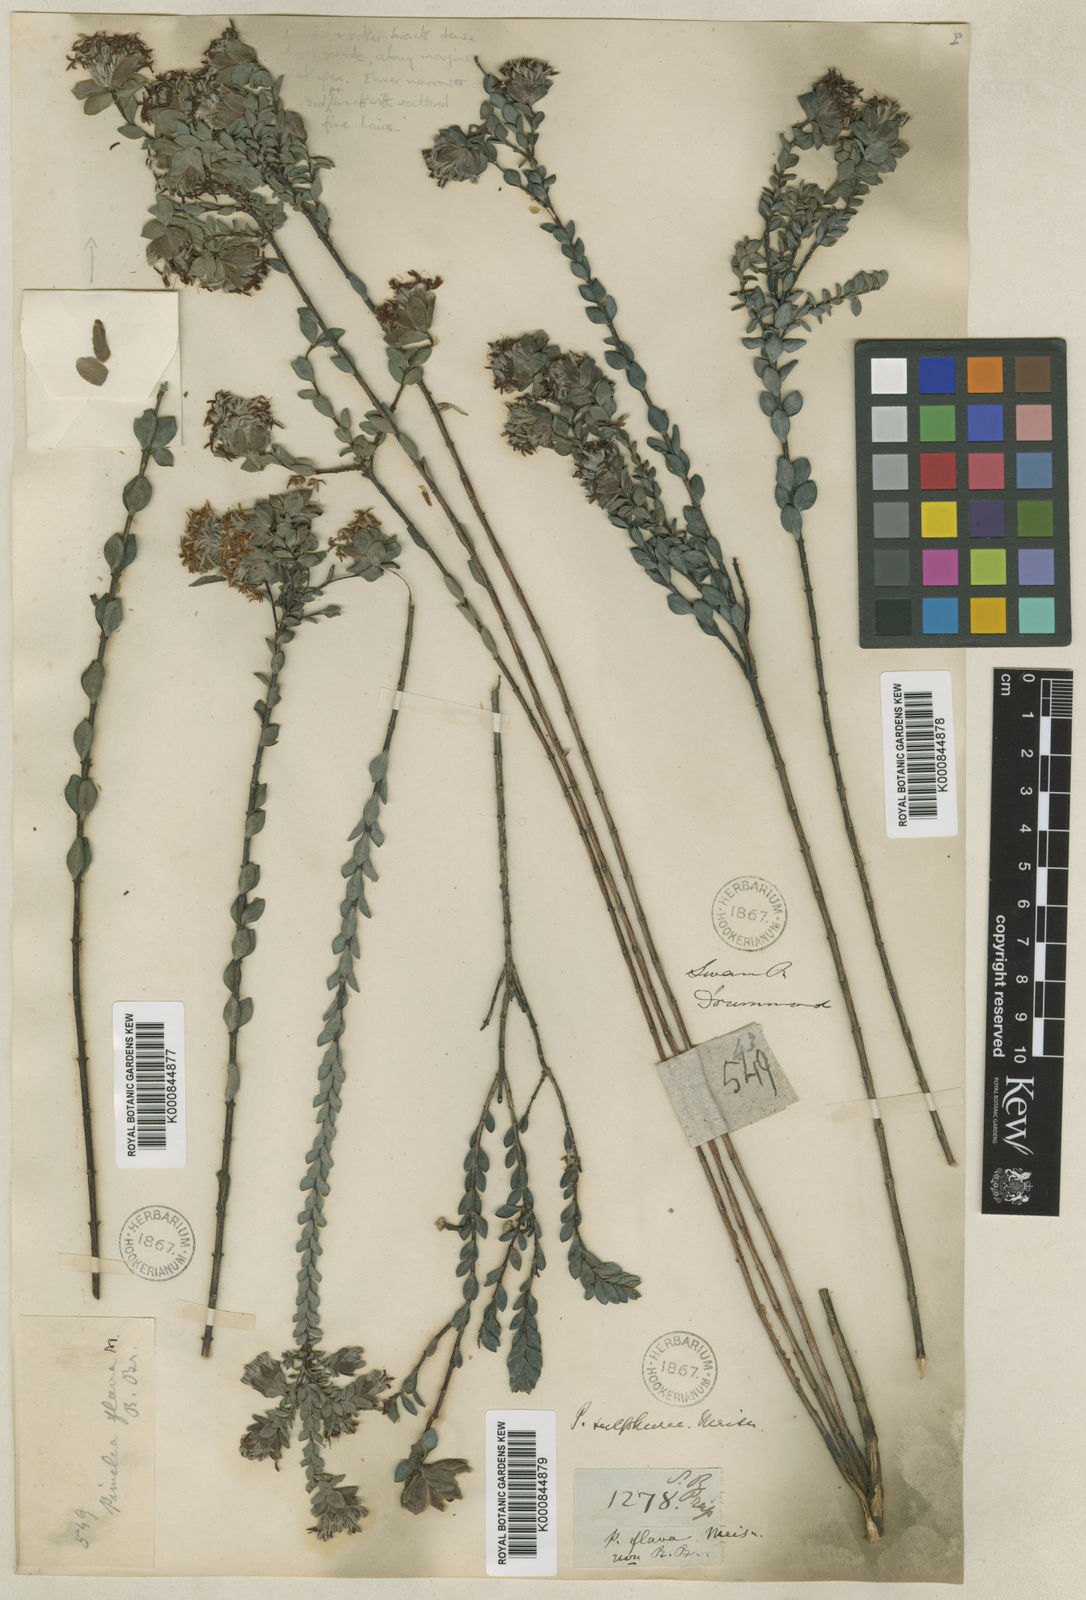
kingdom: Plantae
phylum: Tracheophyta
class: Magnoliopsida
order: Malvales
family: Thymelaeaceae
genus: Pimelea
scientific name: Pimelea sulphurea
